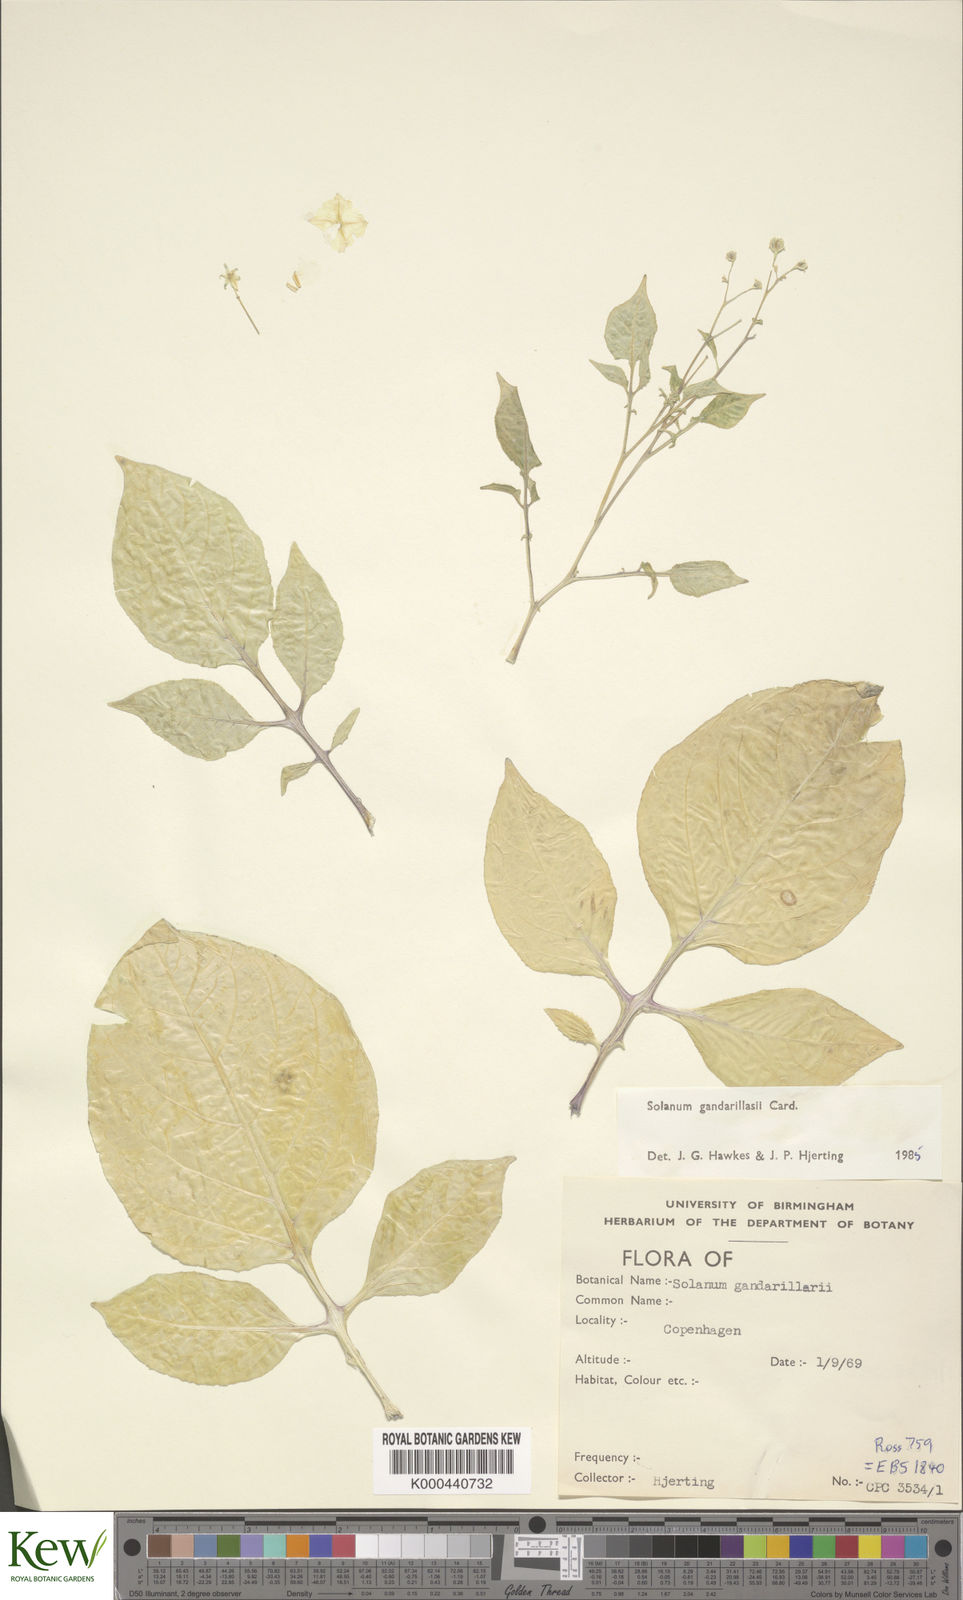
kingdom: Plantae
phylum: Tracheophyta
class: Magnoliopsida
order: Solanales
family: Solanaceae
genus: Solanum
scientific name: Solanum
